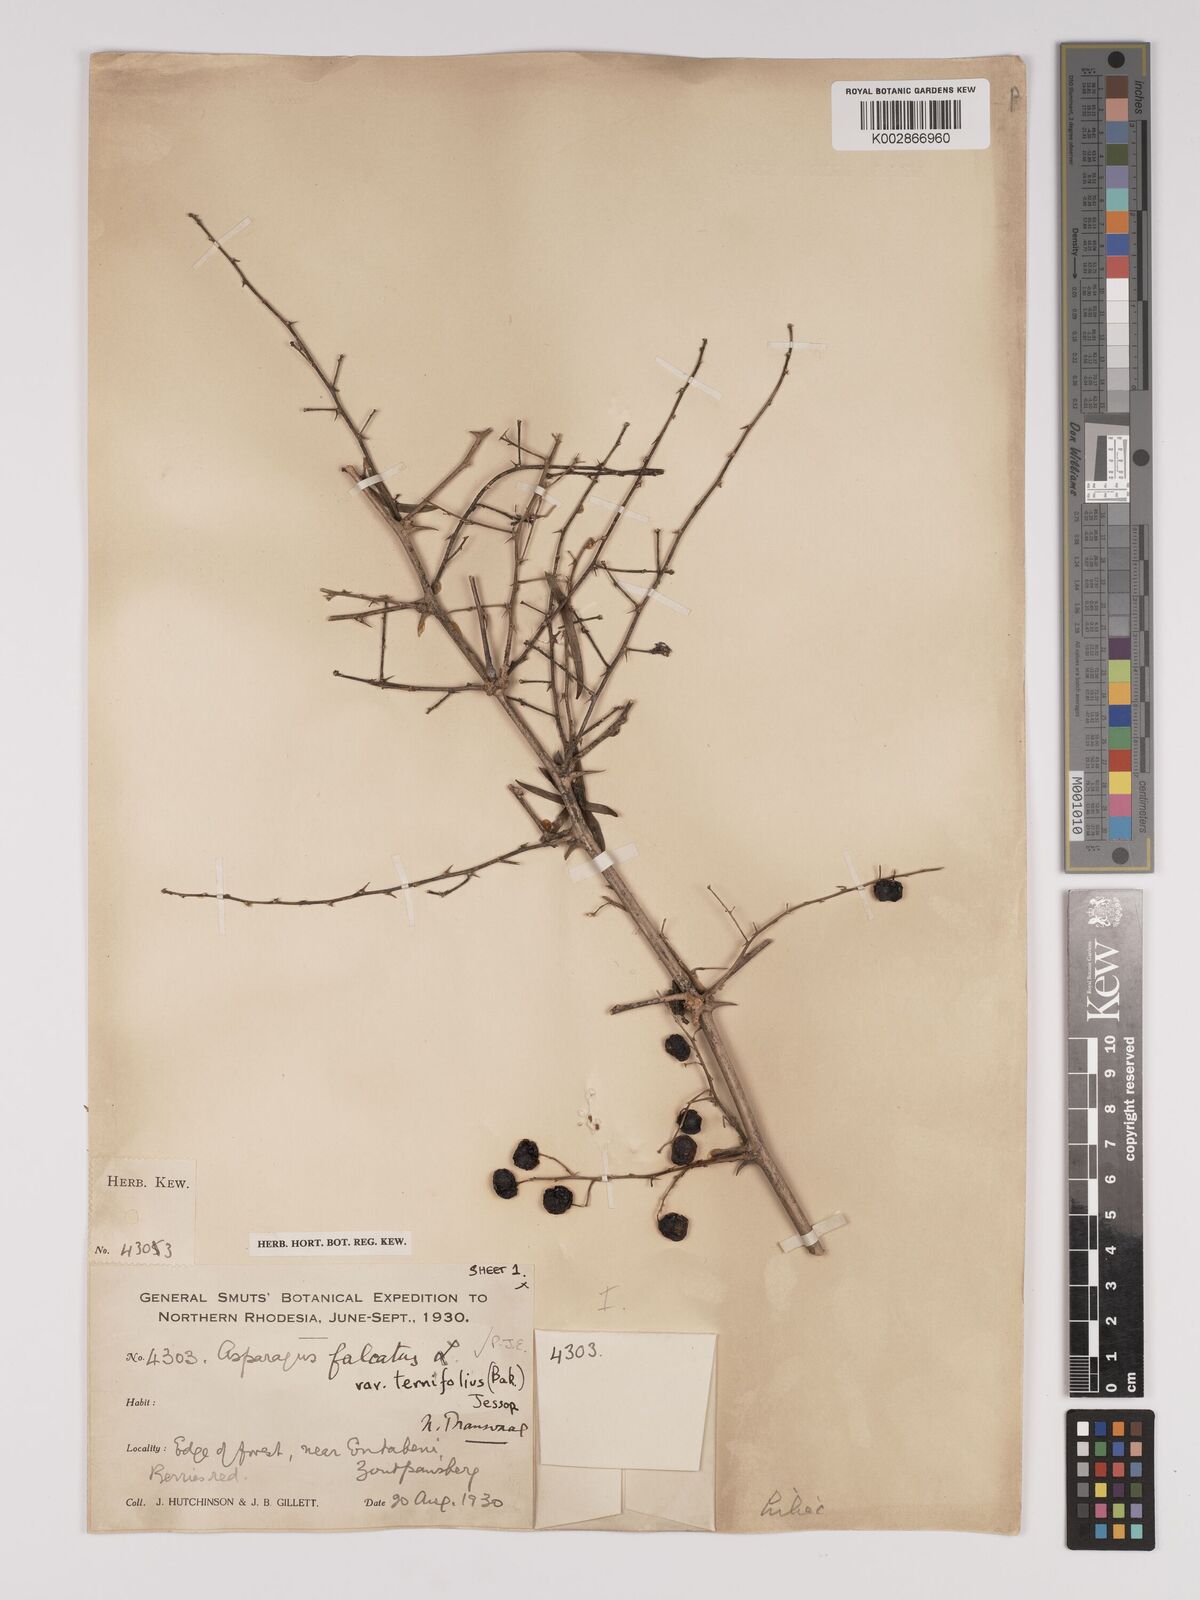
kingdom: Plantae
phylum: Tracheophyta
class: Liliopsida
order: Asparagales
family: Asparagaceae
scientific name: Asparagaceae
